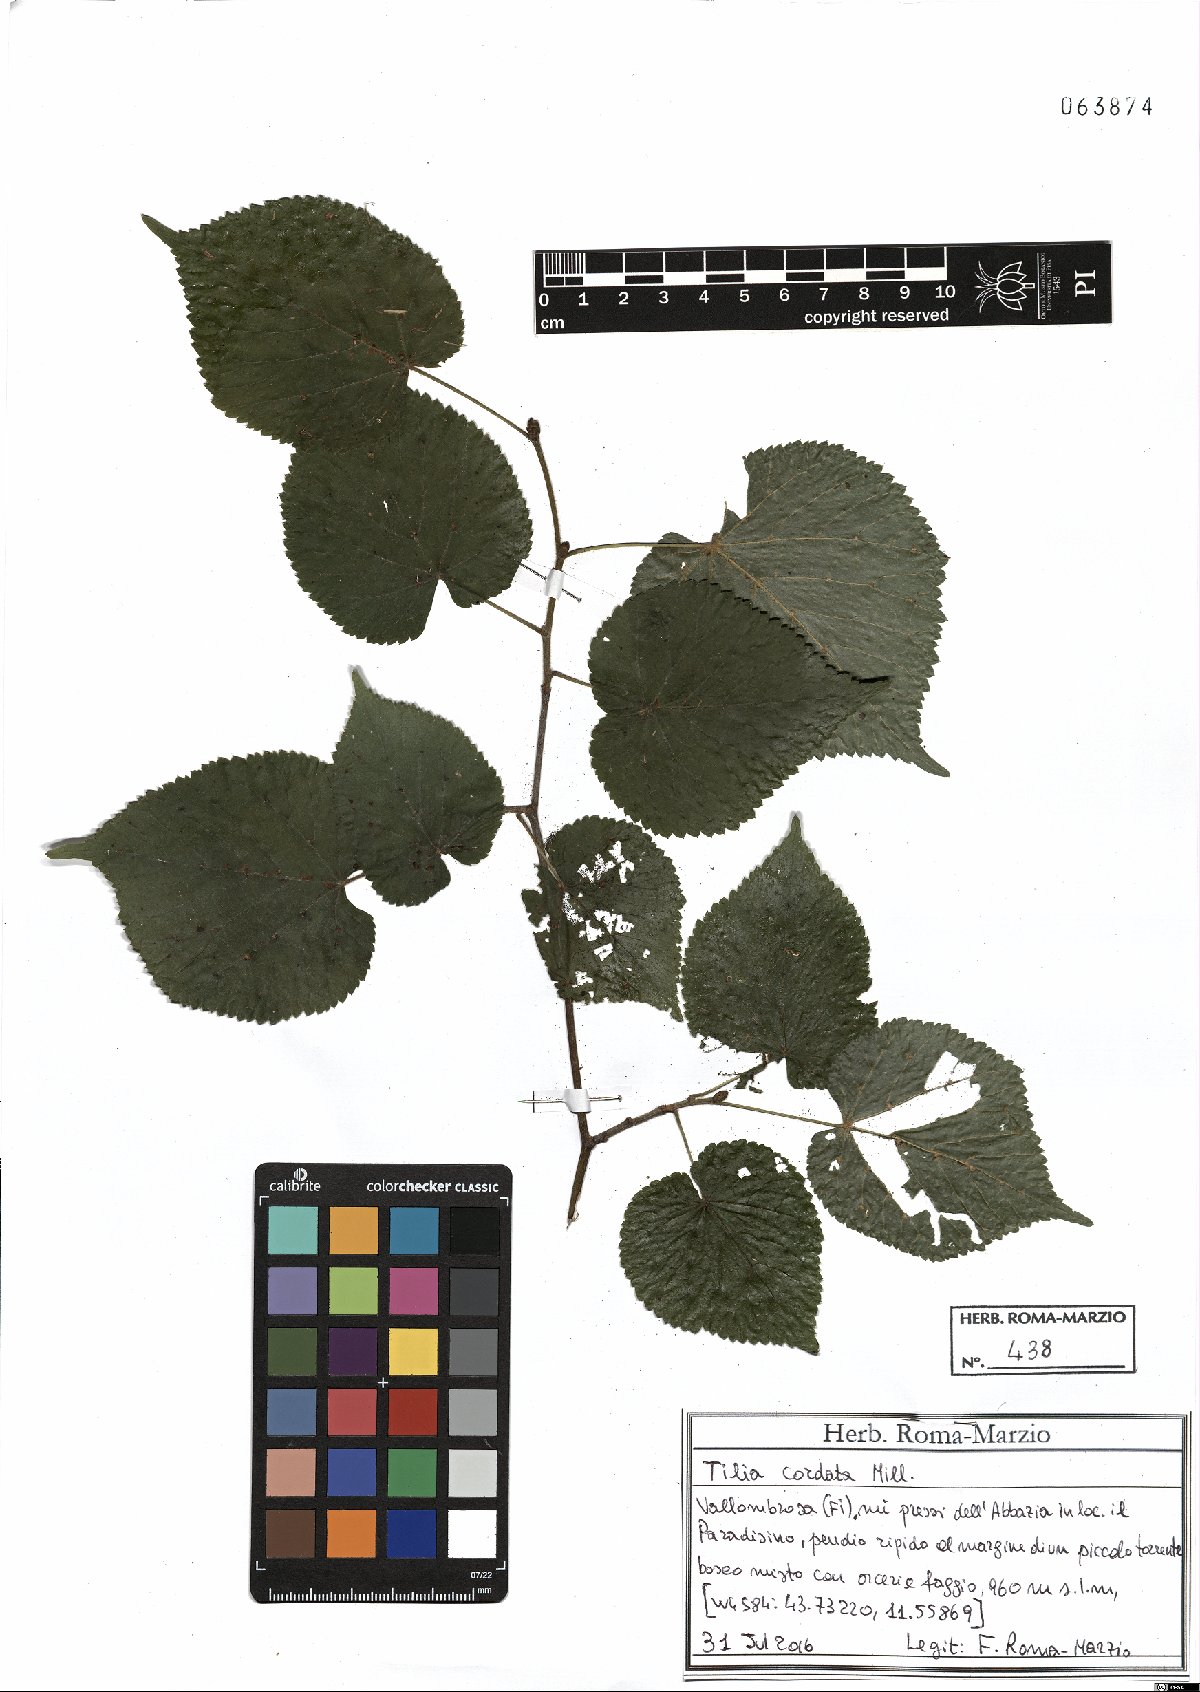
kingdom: Plantae
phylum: Tracheophyta
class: Magnoliopsida
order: Malvales
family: Malvaceae
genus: Tilia
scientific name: Tilia cordata
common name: Small-leaved lime
